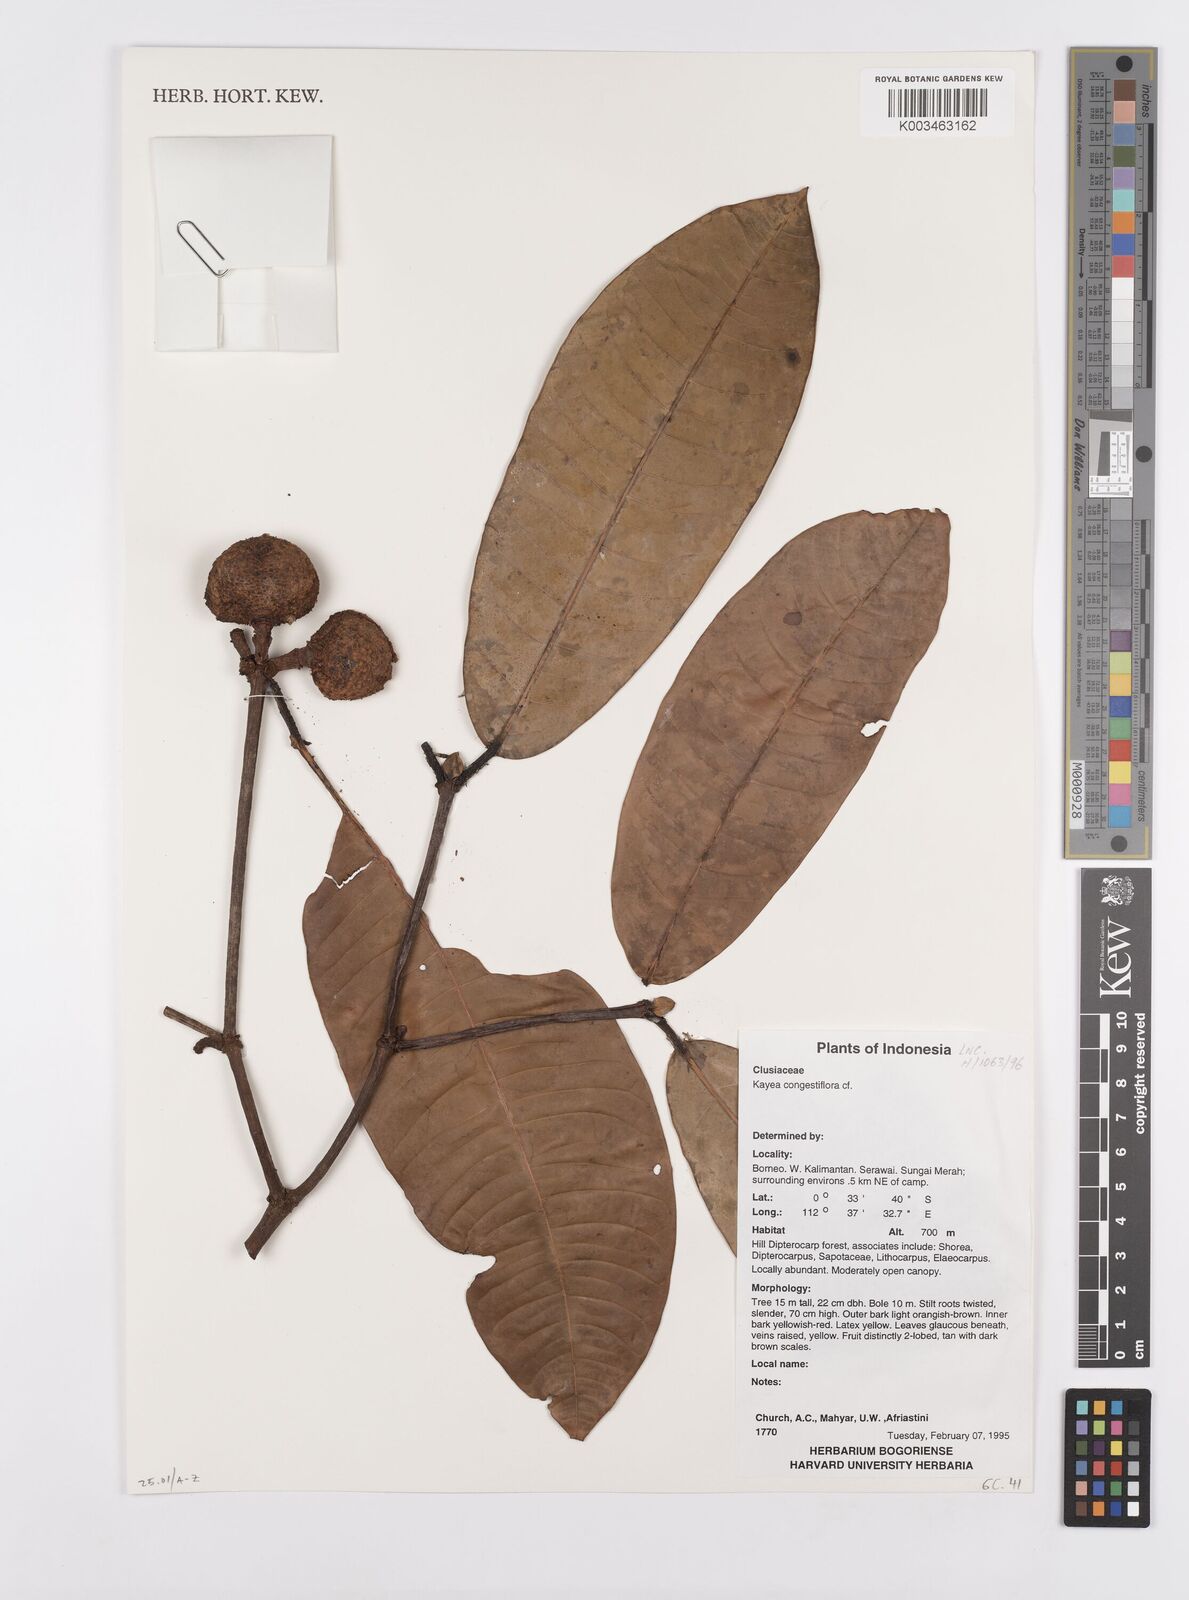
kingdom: Plantae
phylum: Tracheophyta
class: Magnoliopsida
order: Malpighiales
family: Calophyllaceae
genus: Kayea
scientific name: Kayea
